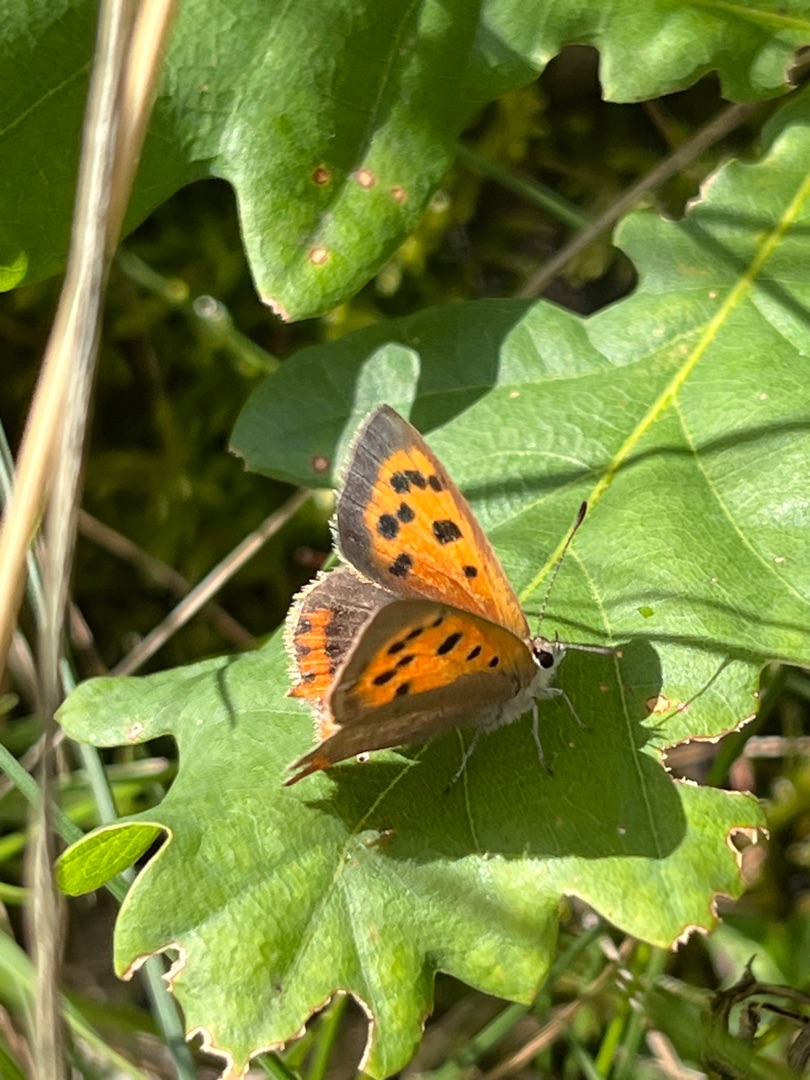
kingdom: Animalia
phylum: Arthropoda
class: Insecta
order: Lepidoptera
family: Lycaenidae
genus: Lycaena
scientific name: Lycaena phlaeas
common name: Lille ildfugl
